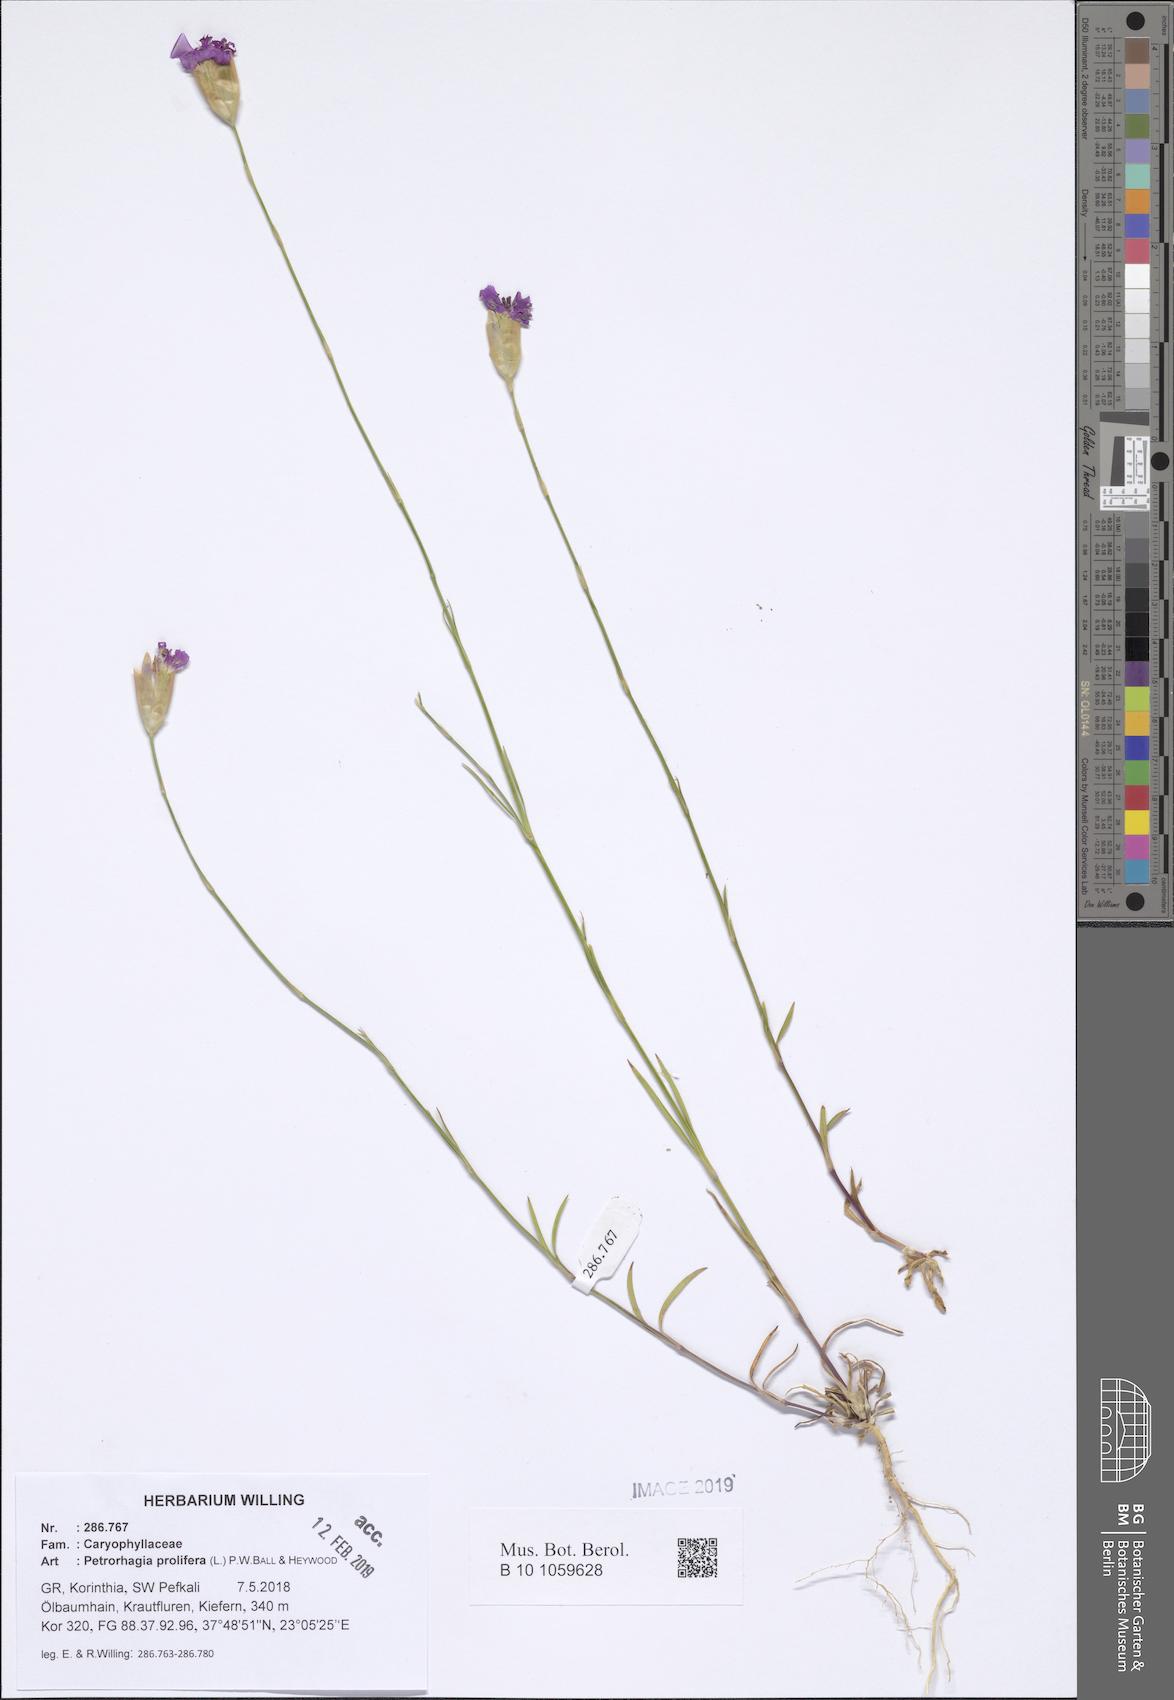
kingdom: Plantae
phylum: Tracheophyta
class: Magnoliopsida
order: Caryophyllales
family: Caryophyllaceae
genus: Petrorhagia
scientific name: Petrorhagia prolifera
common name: Proliferous pink
